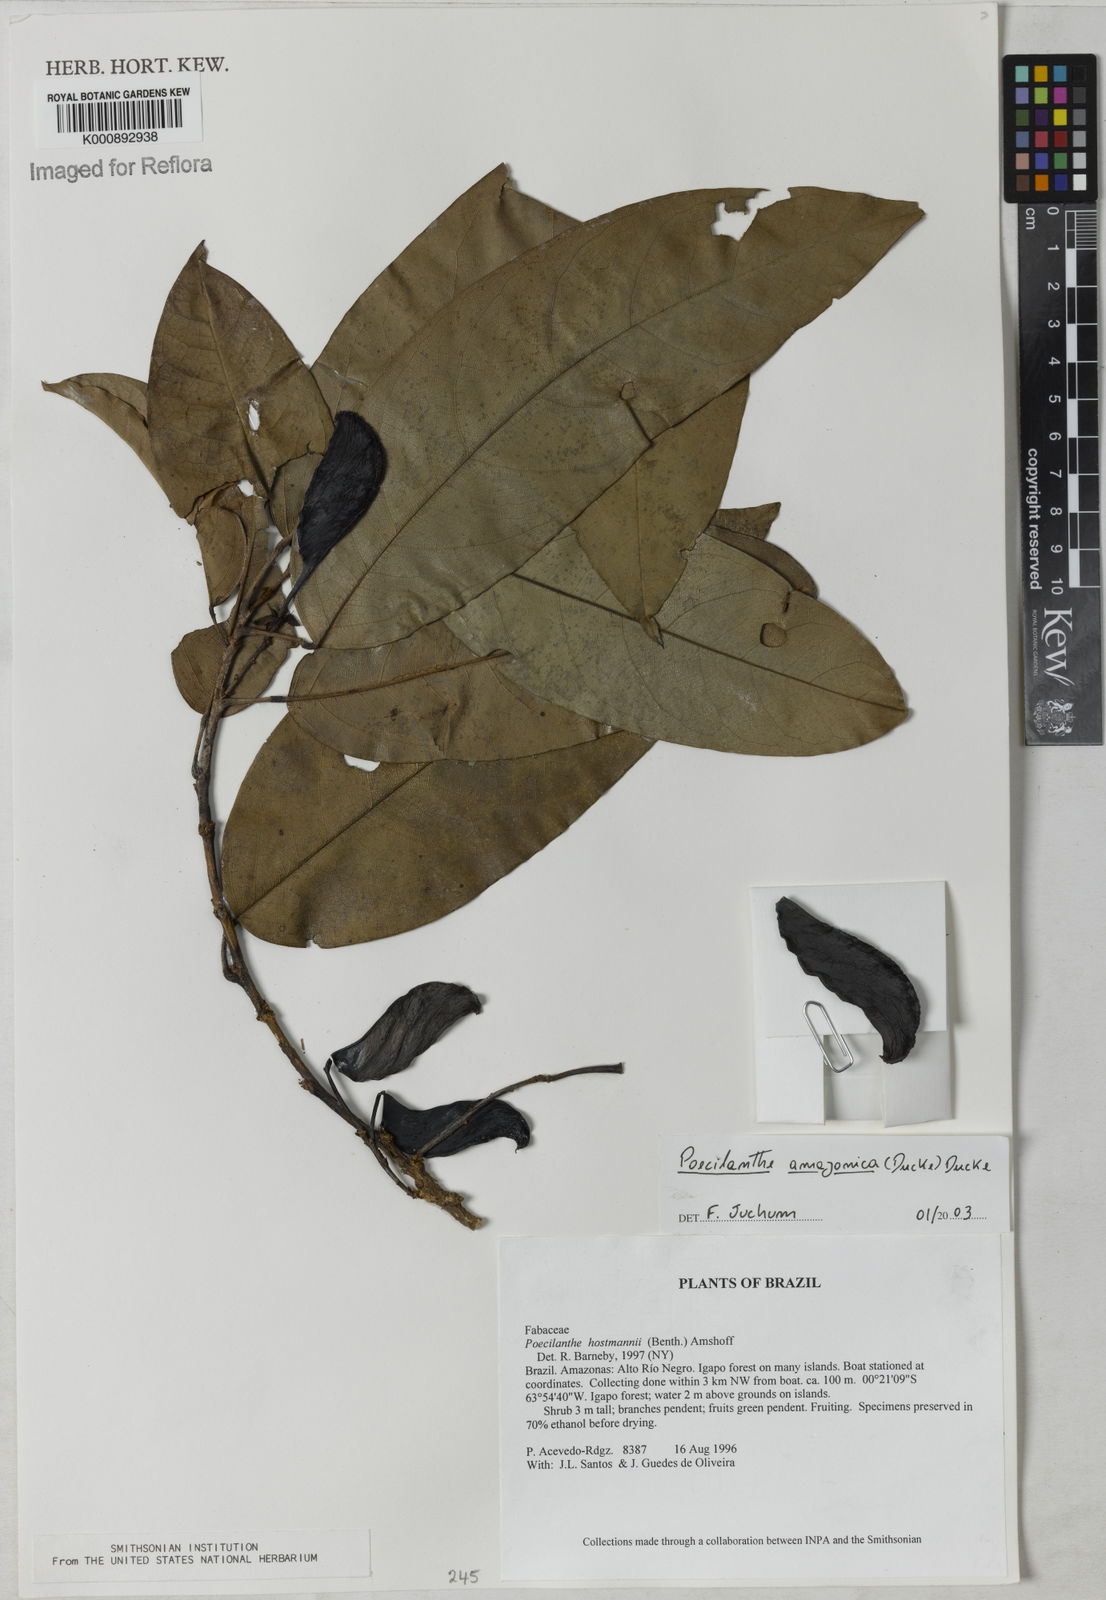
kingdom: Plantae
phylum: Tracheophyta
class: Magnoliopsida
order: Fabales
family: Fabaceae
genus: Limadendron
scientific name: Limadendron amazonicum
